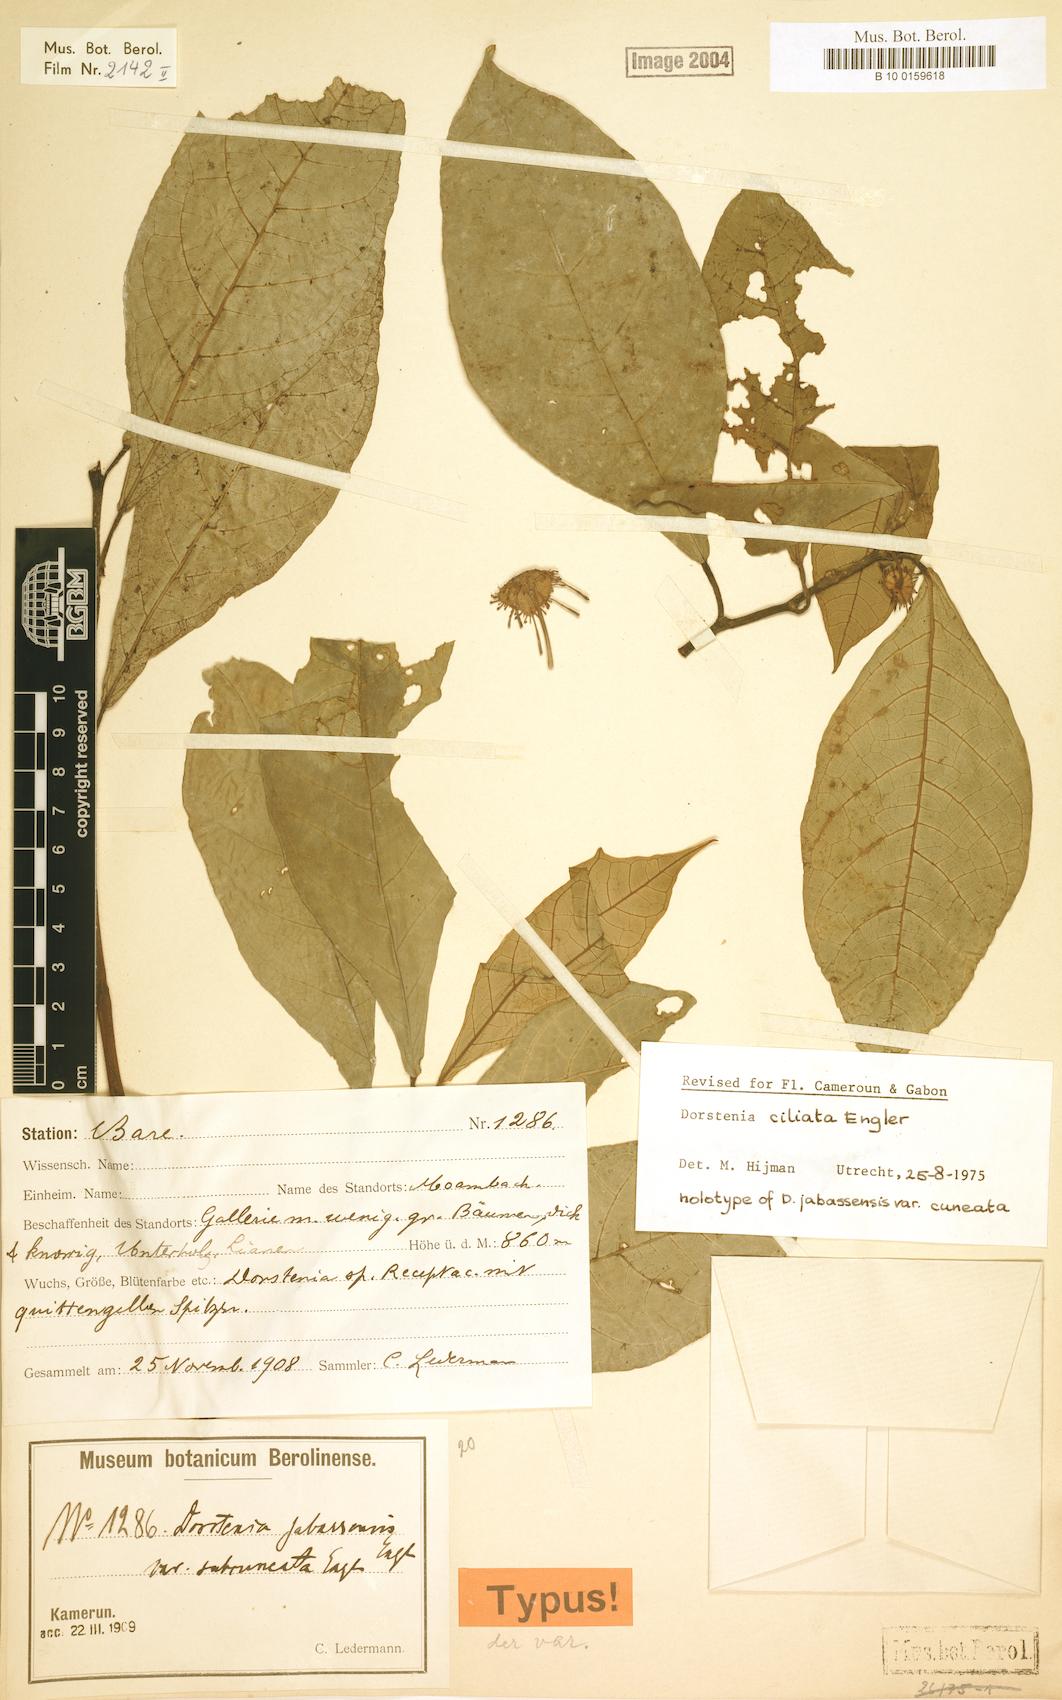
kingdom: Plantae
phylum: Tracheophyta
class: Magnoliopsida
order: Rosales
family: Moraceae
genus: Dorstenia
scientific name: Dorstenia ciliata
